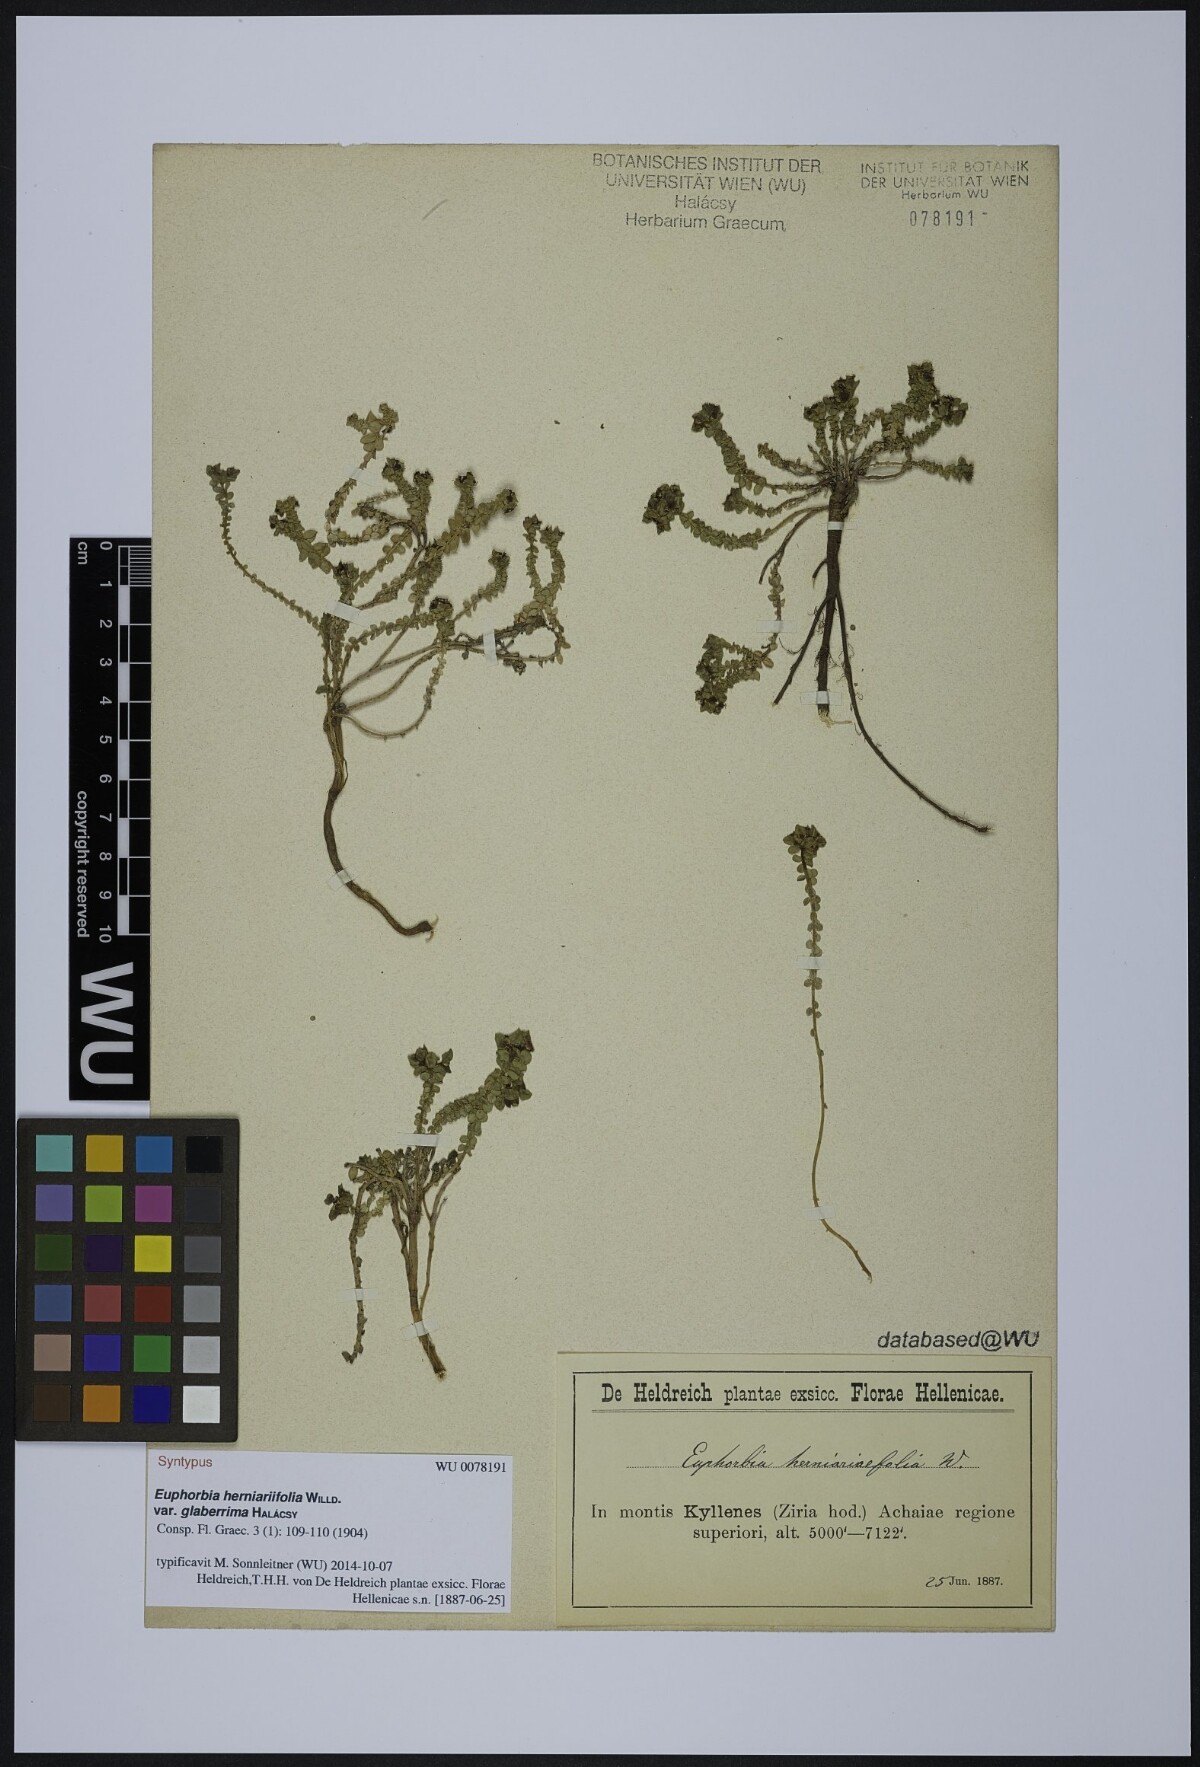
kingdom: Plantae
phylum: Tracheophyta
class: Magnoliopsida
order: Malpighiales
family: Euphorbiaceae
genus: Euphorbia
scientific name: Euphorbia herniariifolia
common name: Herniaria-leaf spurge
